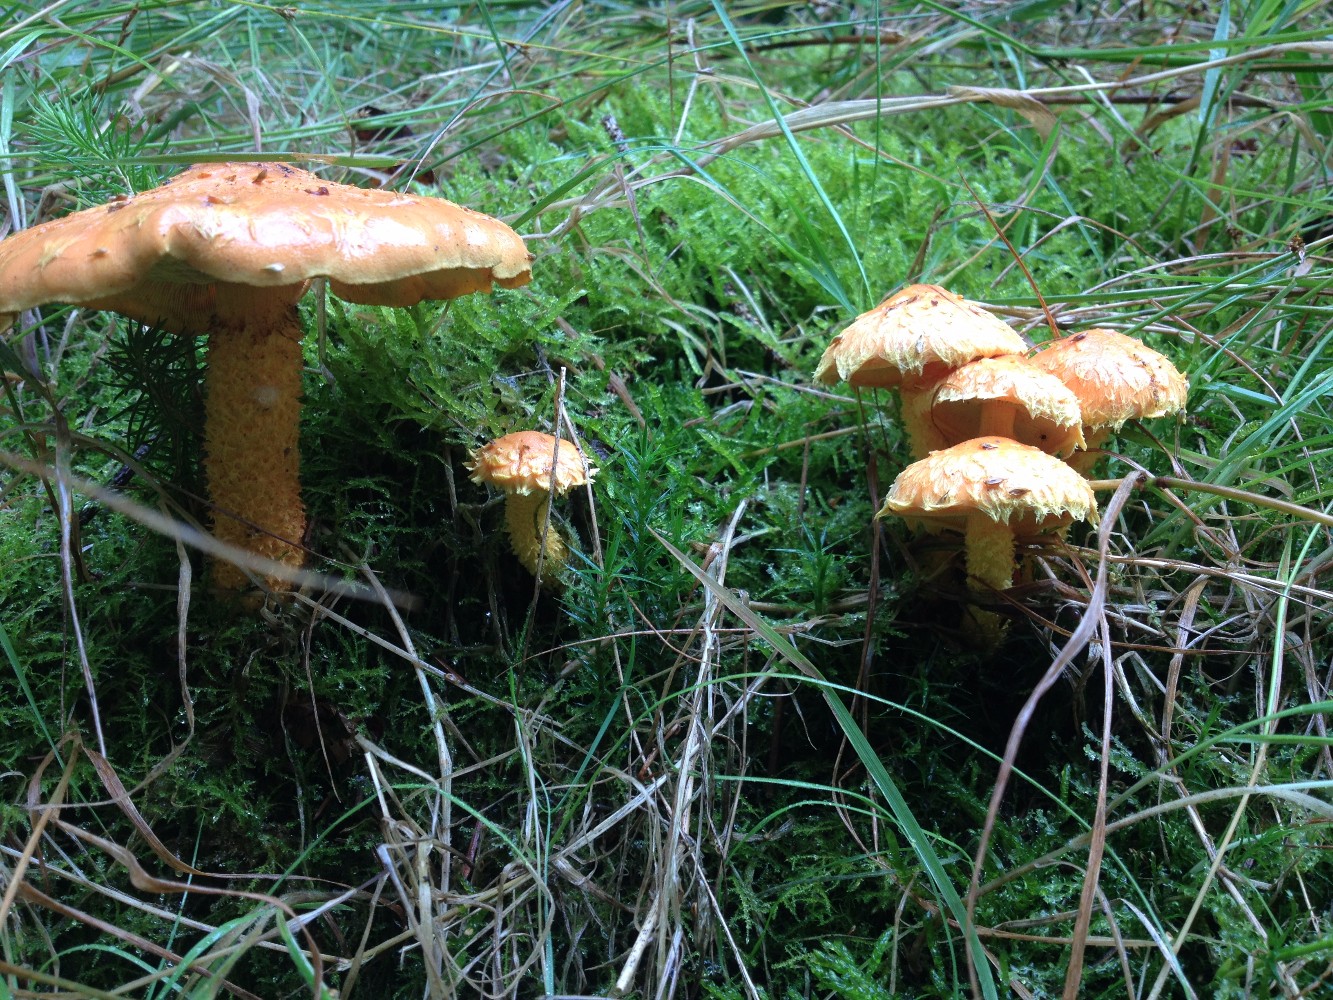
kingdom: Fungi
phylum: Basidiomycota
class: Agaricomycetes
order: Agaricales
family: Strophariaceae
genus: Pholiota
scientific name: Pholiota flammans
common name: flamme-skælhat
